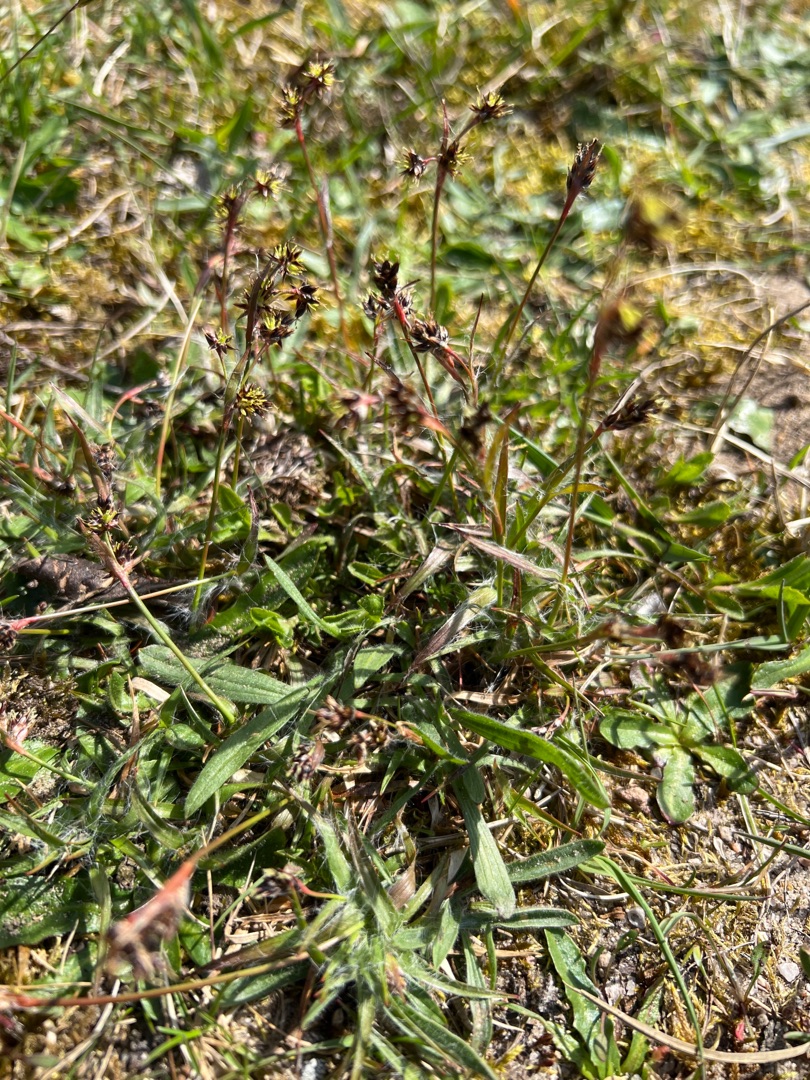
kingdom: Plantae
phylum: Tracheophyta
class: Liliopsida
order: Poales
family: Juncaceae
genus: Luzula
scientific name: Luzula campestris
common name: Mark-frytle
